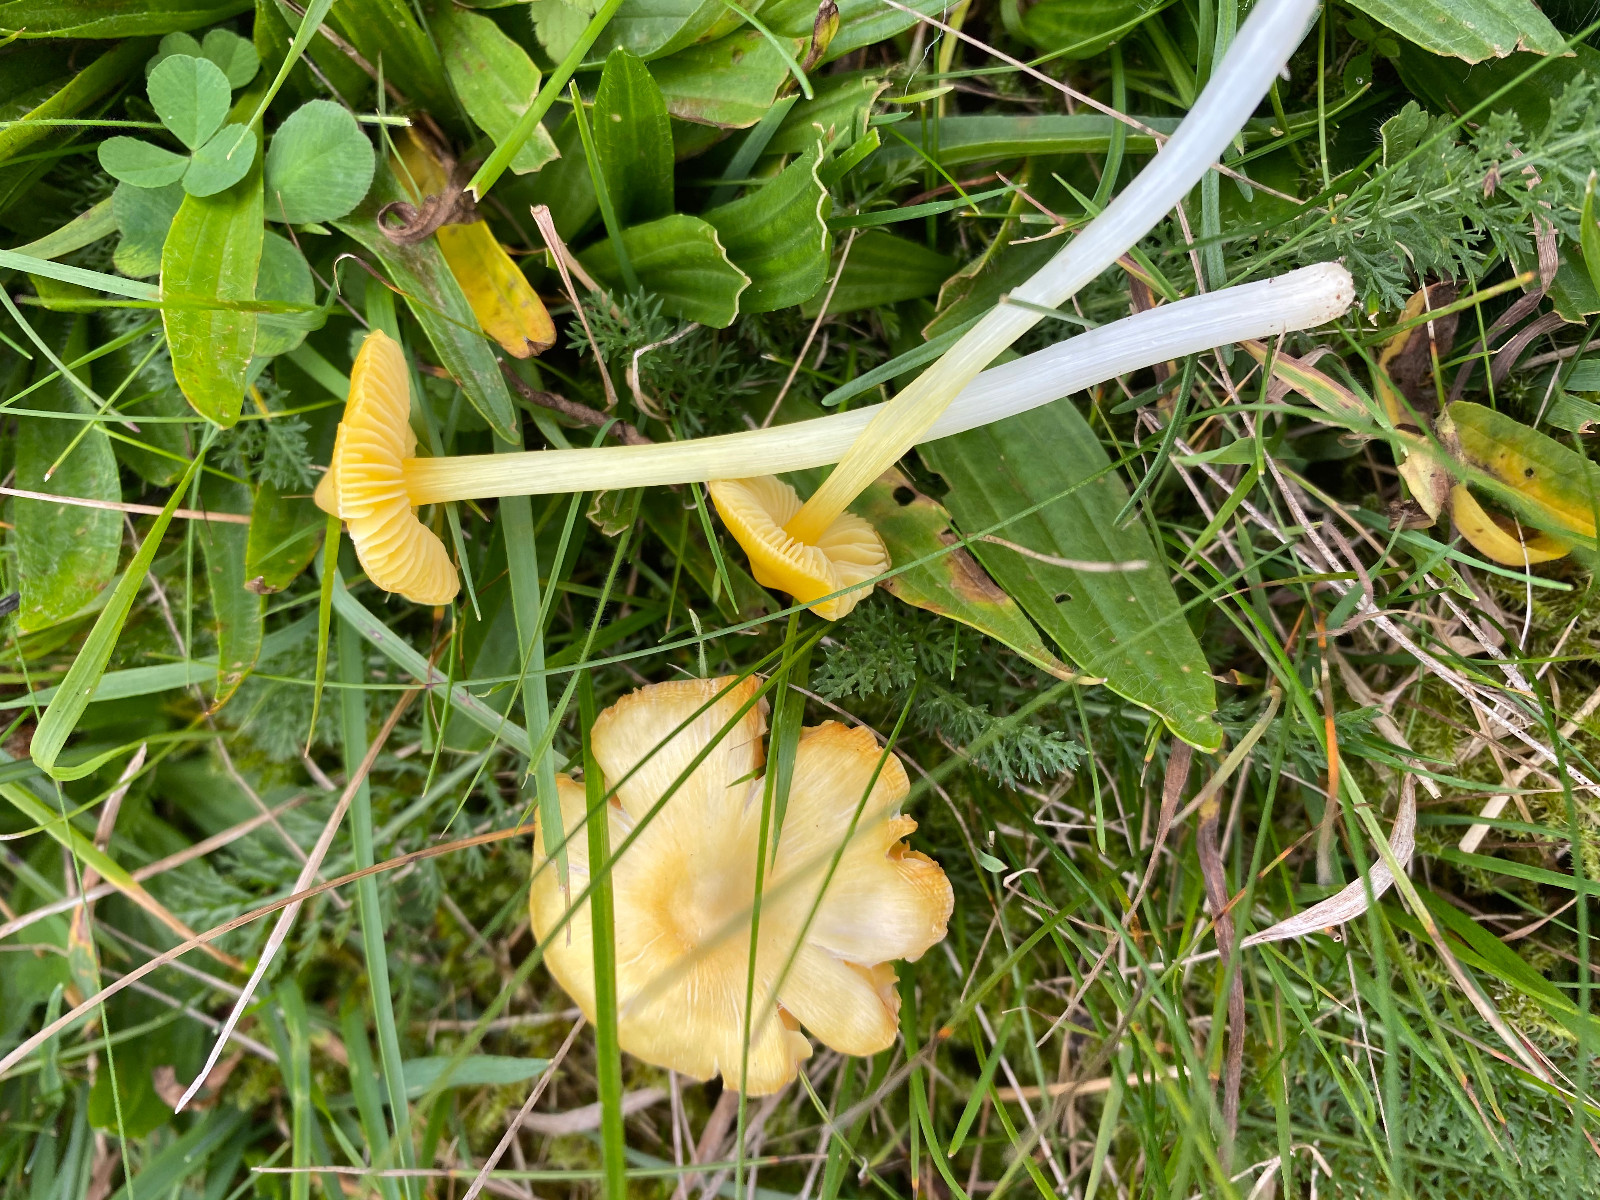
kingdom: Fungi
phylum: Basidiomycota
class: Agaricomycetes
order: Agaricales
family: Hygrophoraceae
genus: Hygrocybe
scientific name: Hygrocybe acutoconica
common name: spidspuklet vokshat
